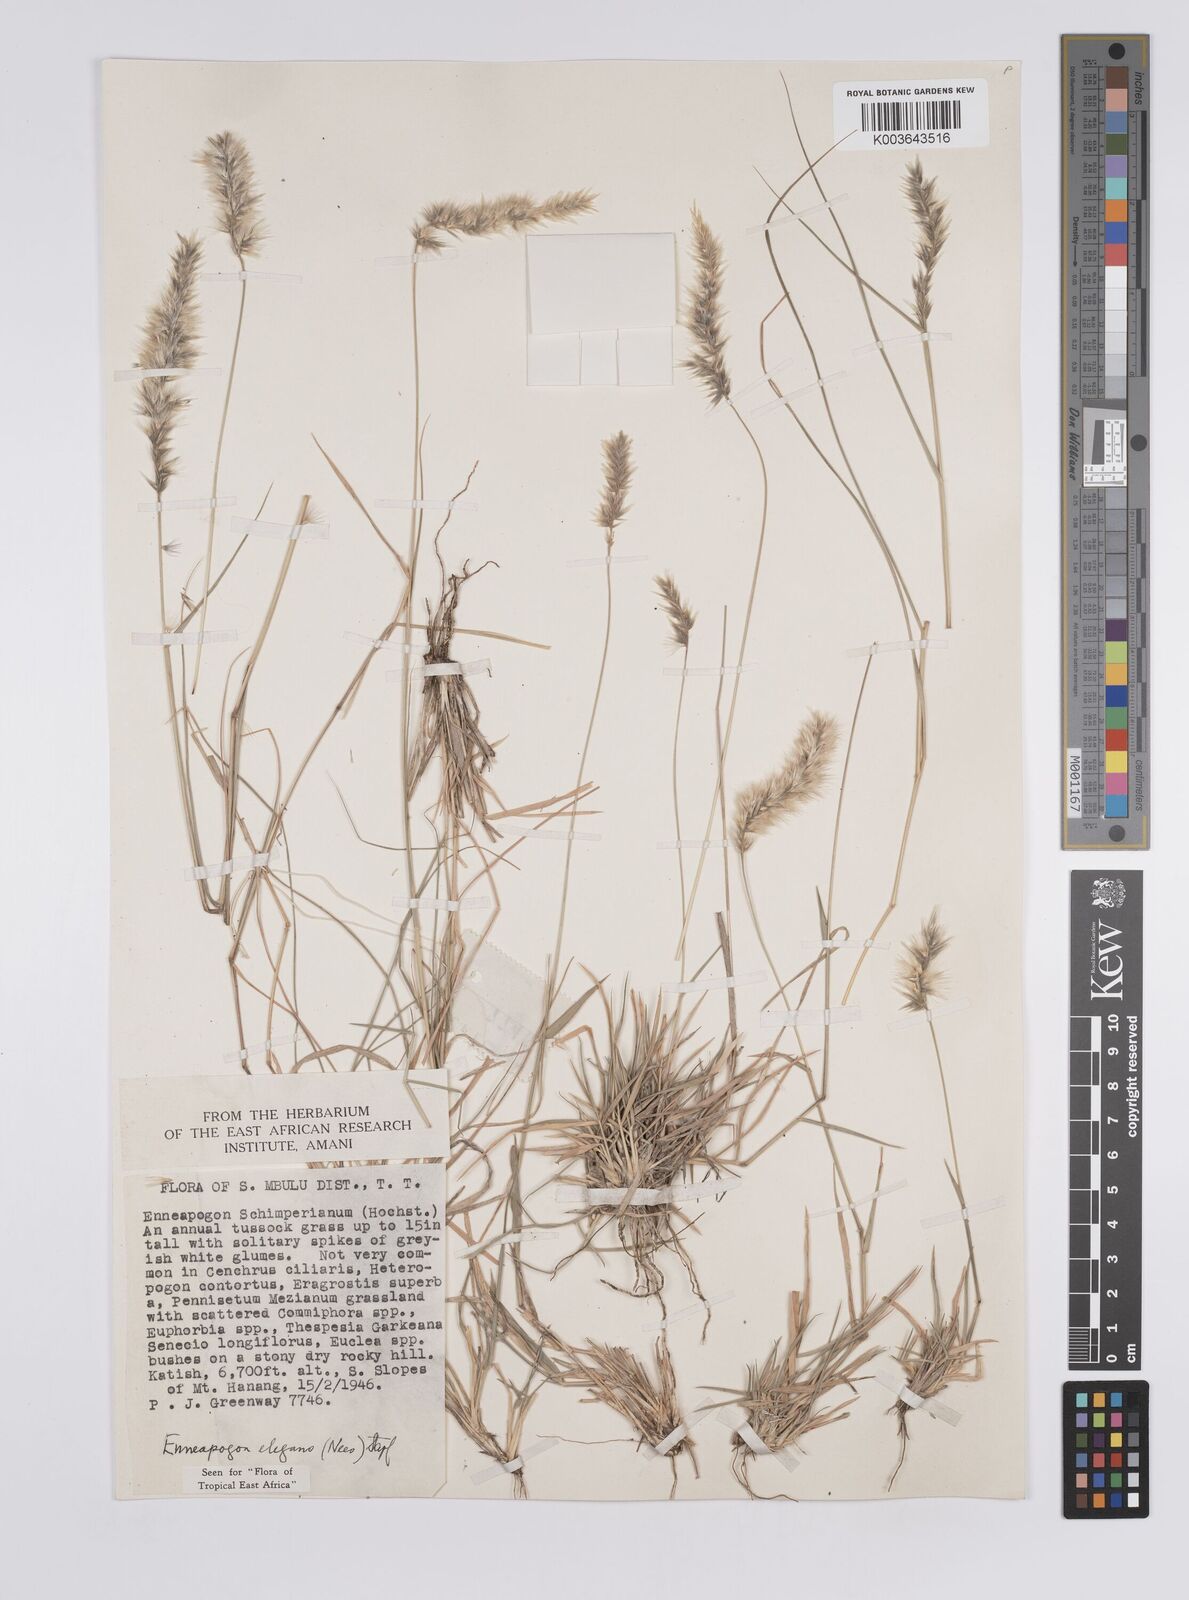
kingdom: Plantae
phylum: Tracheophyta
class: Liliopsida
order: Poales
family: Poaceae
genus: Enneapogon
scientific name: Enneapogon persicus
